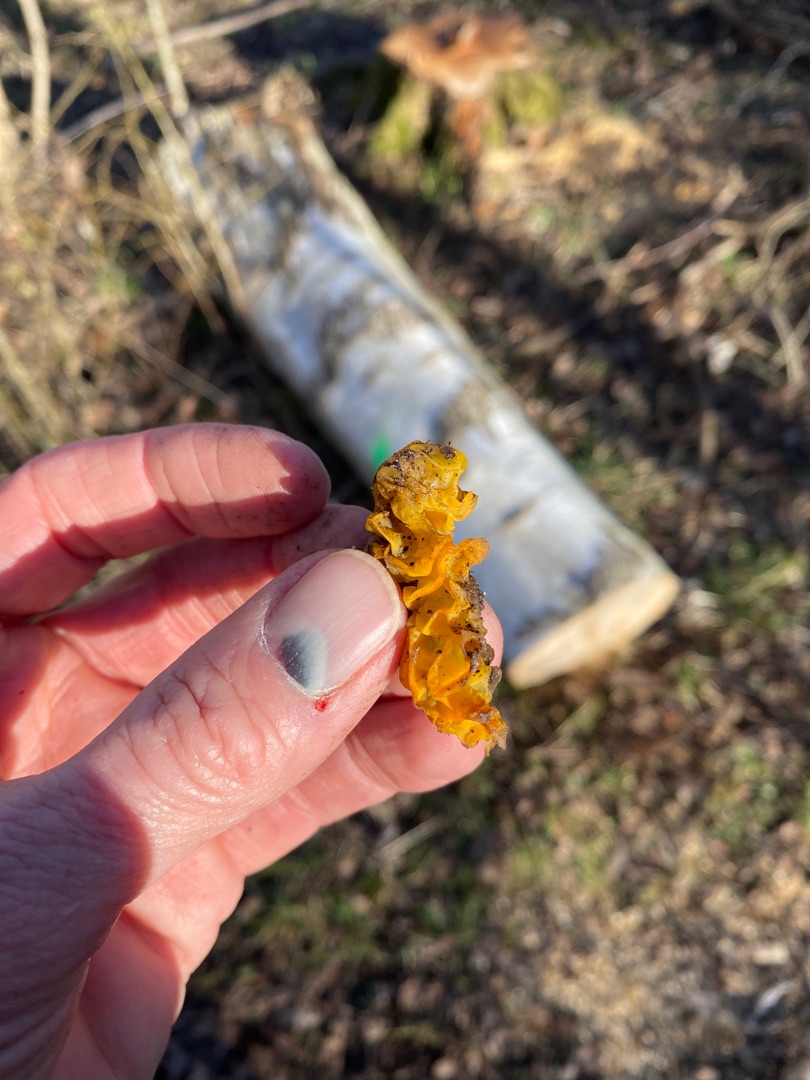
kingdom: Fungi
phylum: Basidiomycota
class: Tremellomycetes
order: Tremellales
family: Tremellaceae
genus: Tremella
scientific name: Tremella mesenterica
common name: Gul bævresvamp
